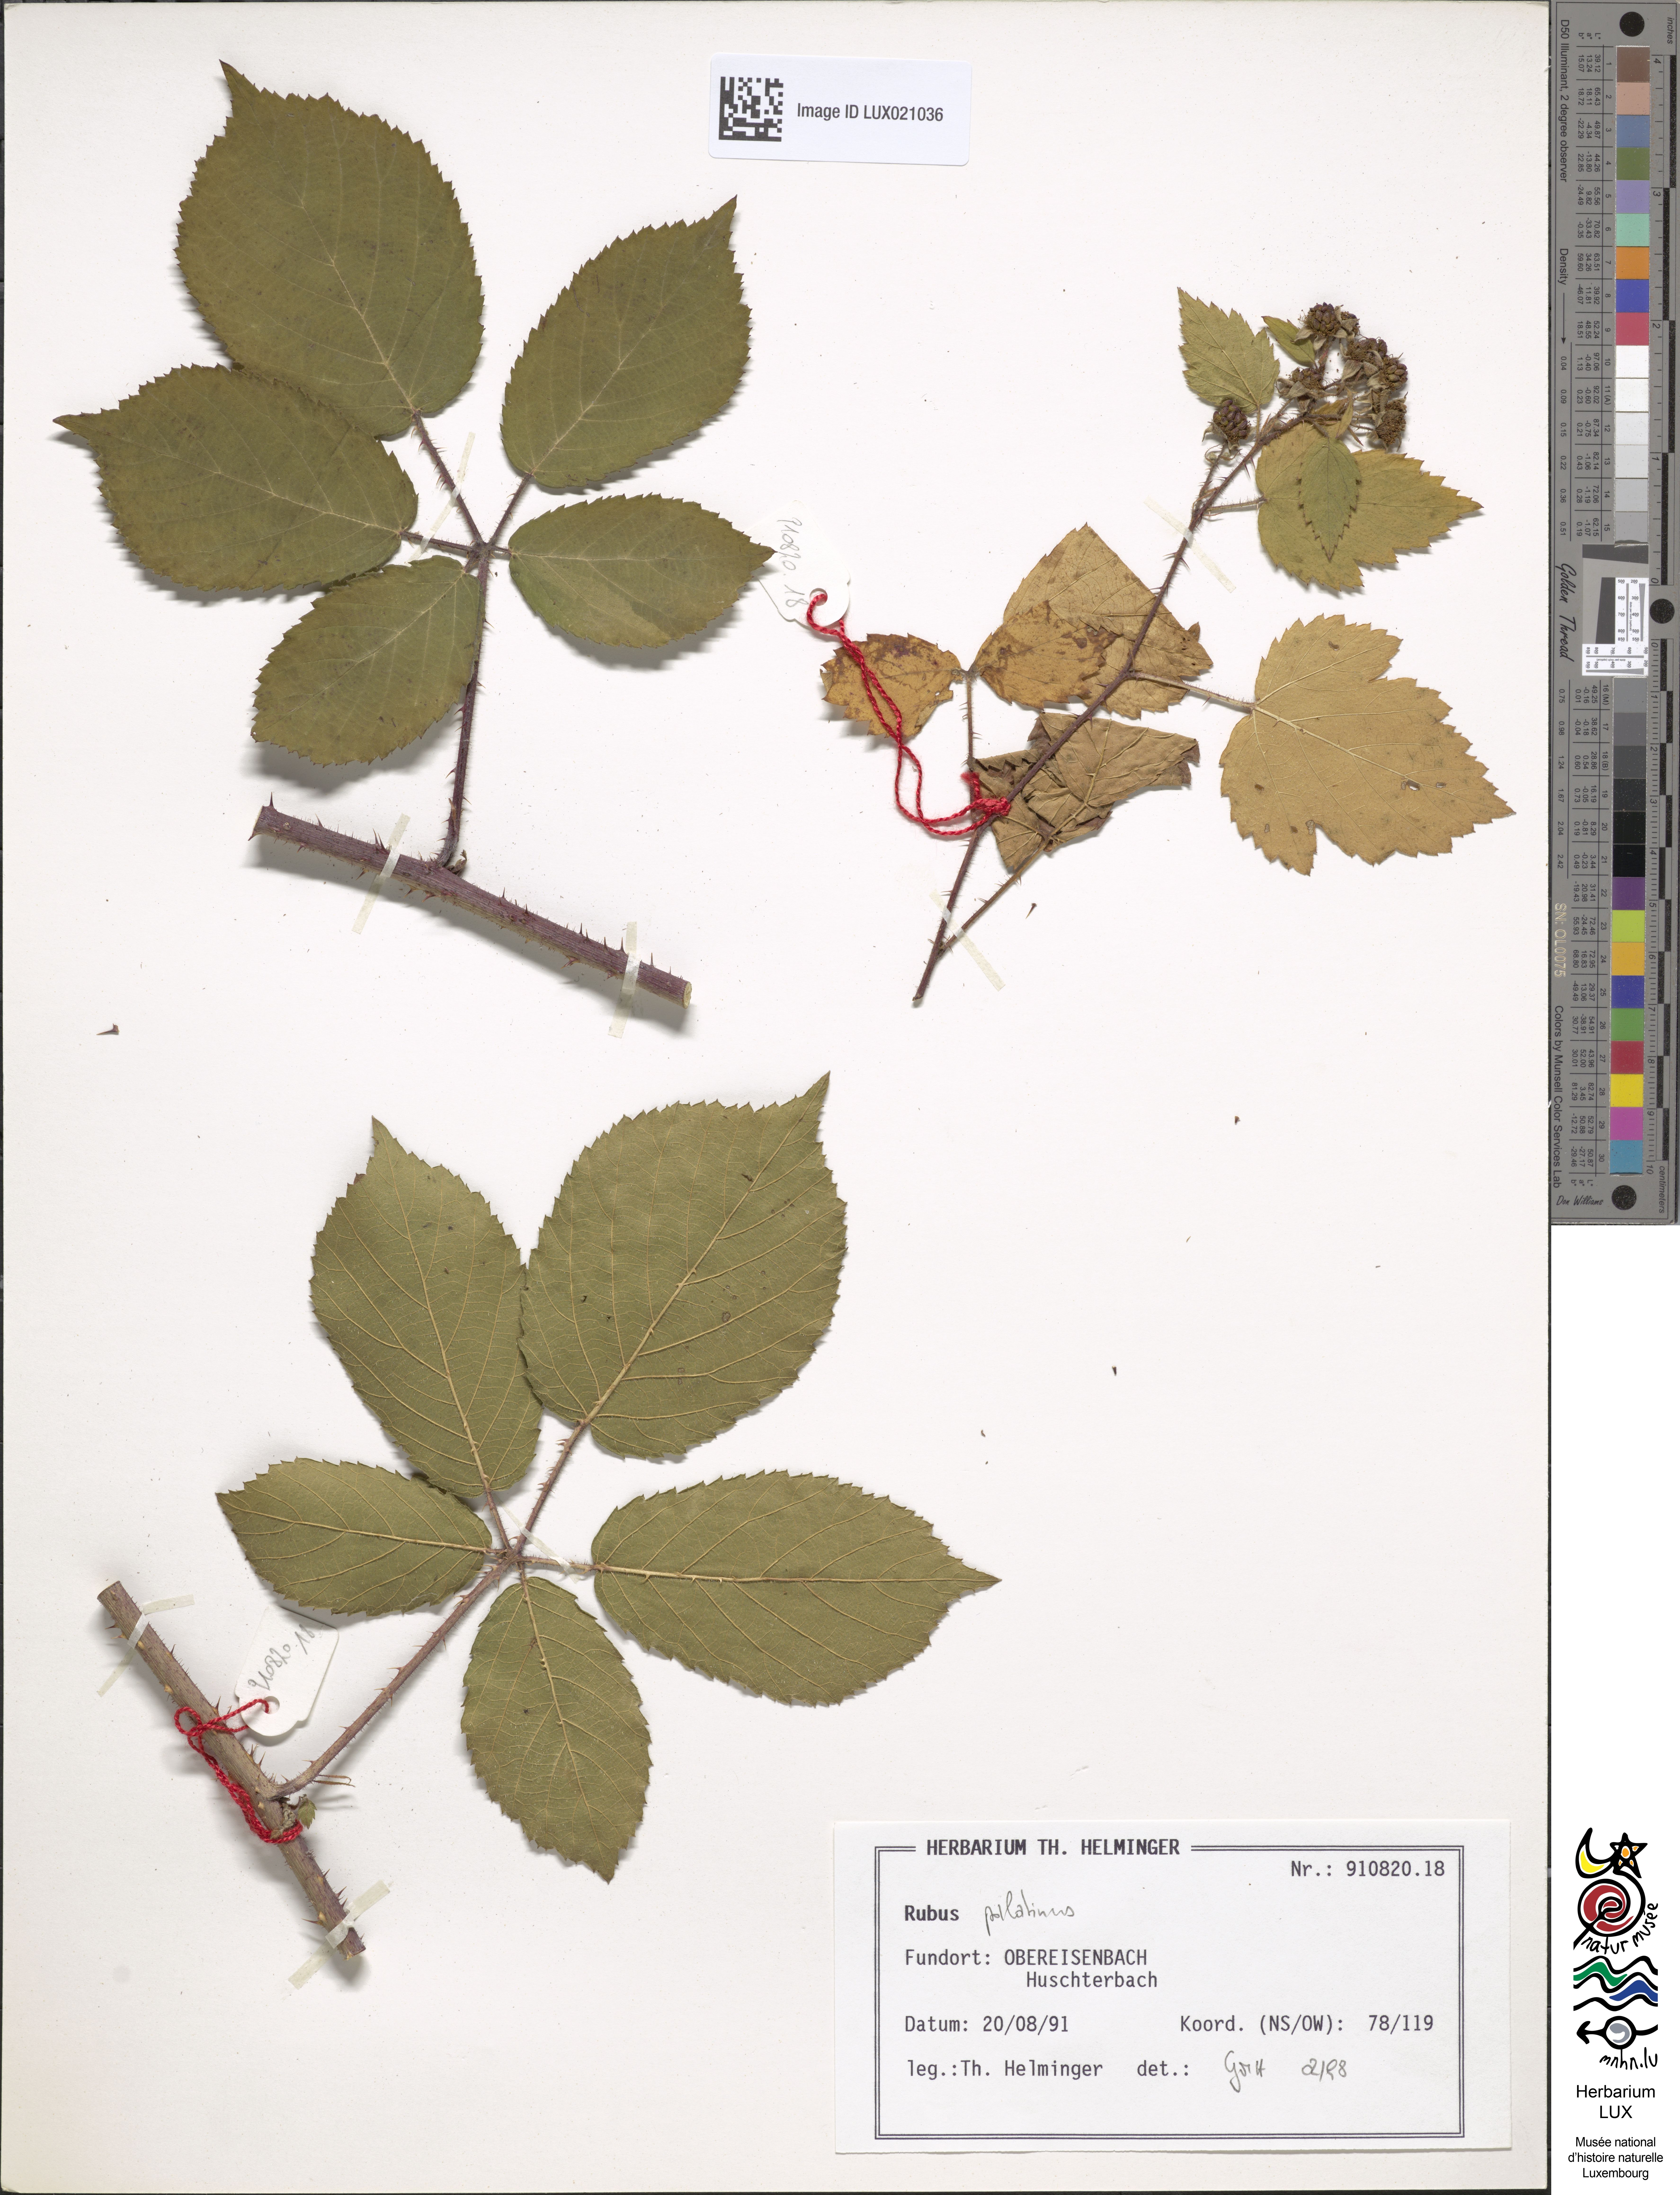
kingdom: Plantae
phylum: Tracheophyta
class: Magnoliopsida
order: Rosales
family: Rosaceae
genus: Rubus
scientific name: Rubus macrodontus
